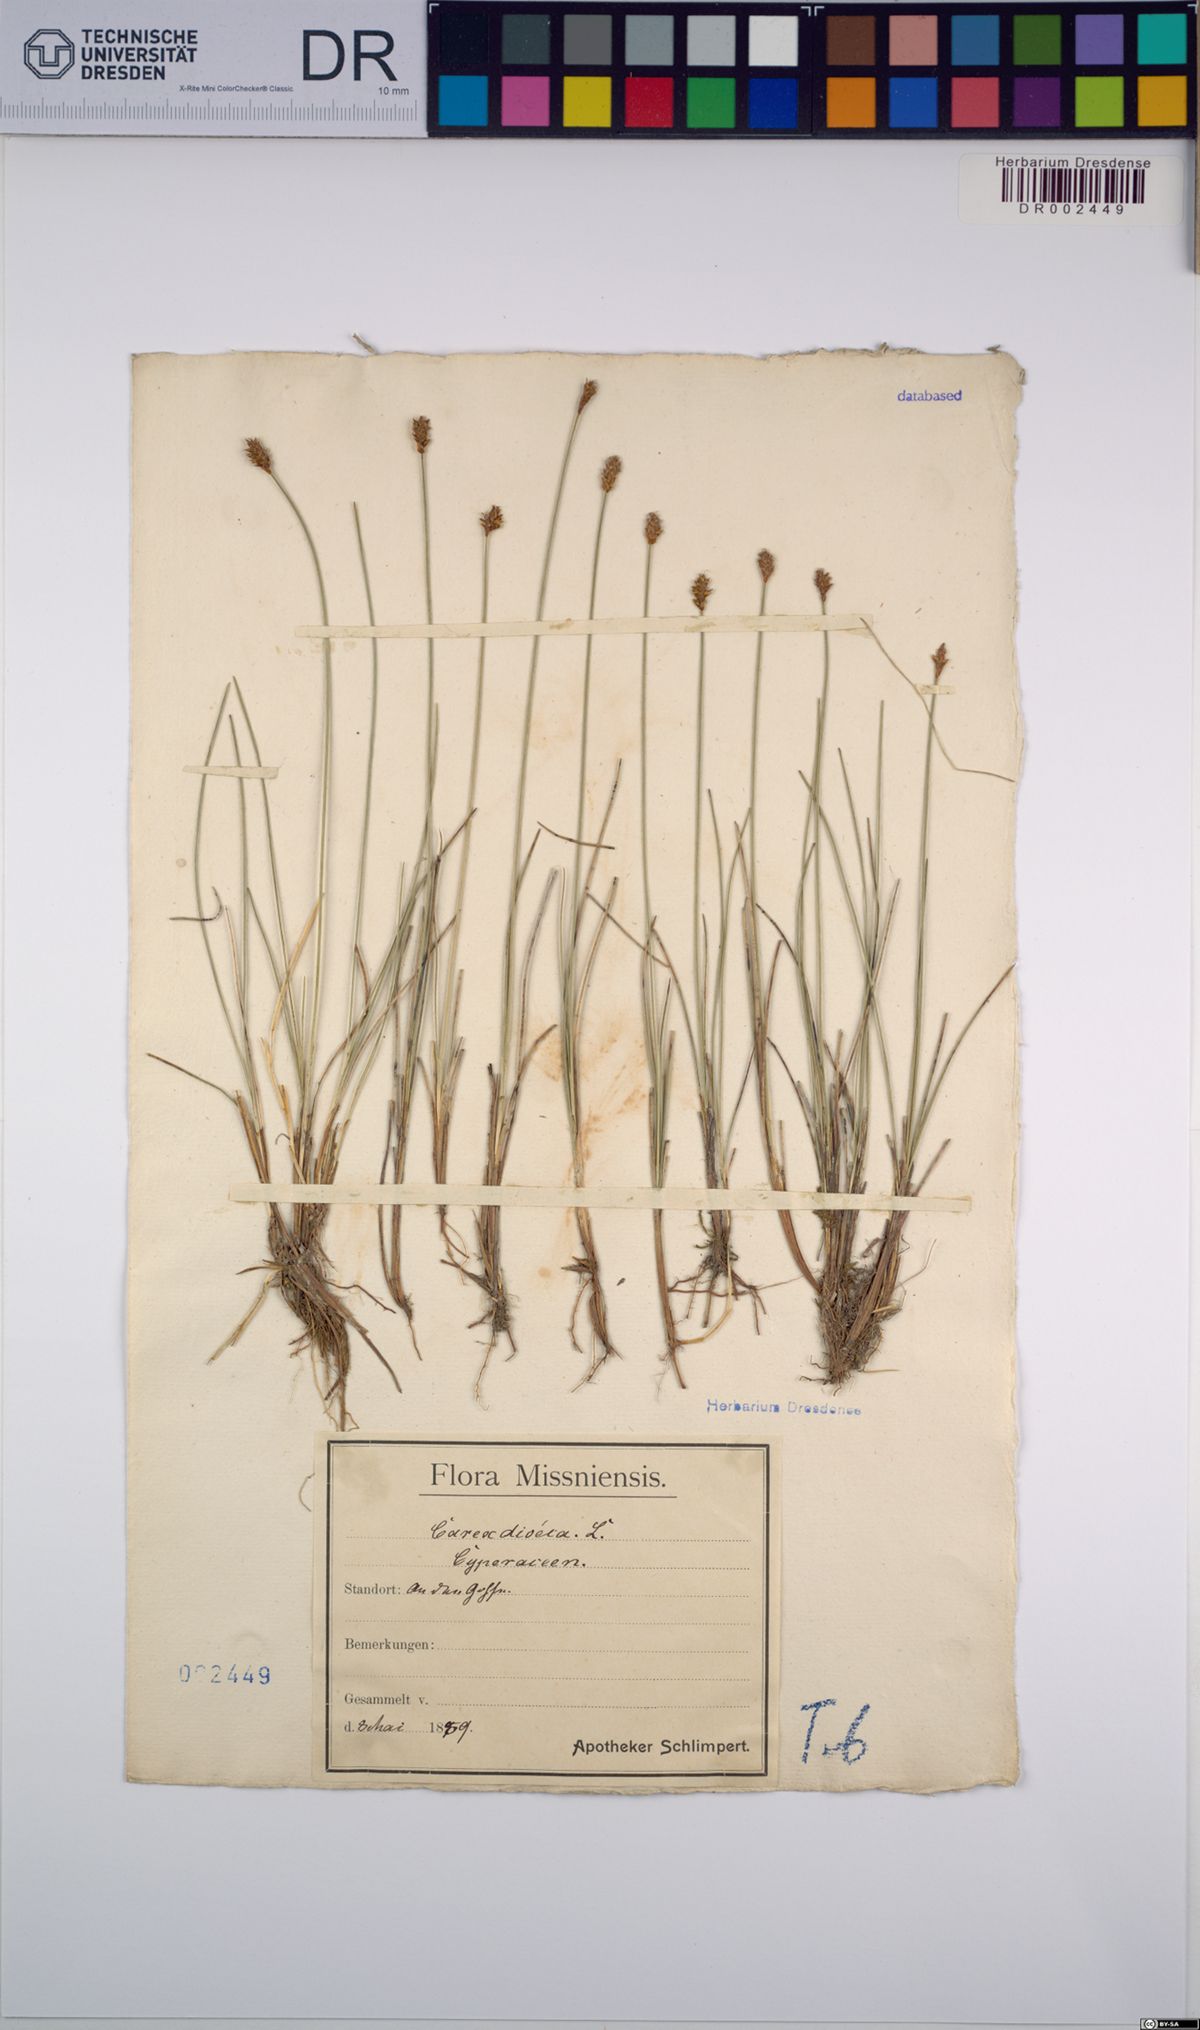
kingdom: Plantae
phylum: Tracheophyta
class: Liliopsida
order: Poales
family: Cyperaceae
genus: Carex
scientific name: Carex dioica
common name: Dioecious sedge
